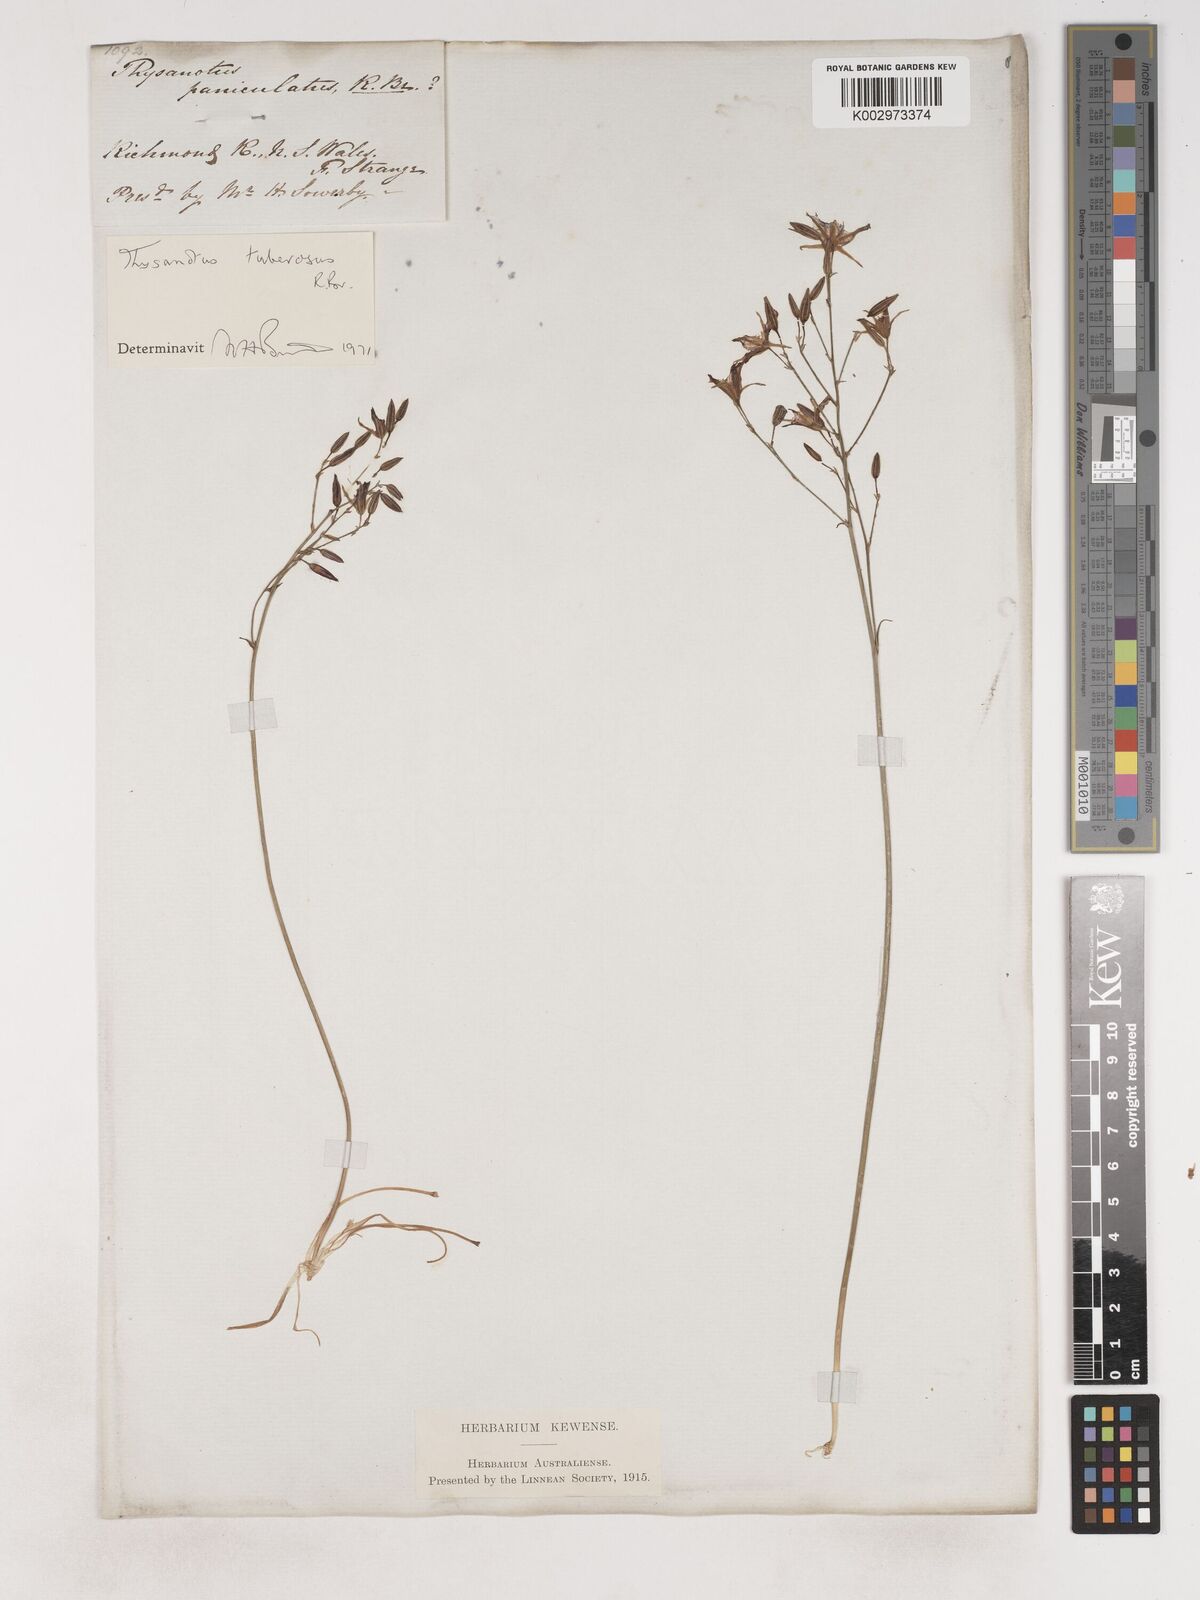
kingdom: Plantae
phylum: Tracheophyta
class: Liliopsida
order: Asparagales
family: Asparagaceae
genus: Thysanotus
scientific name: Thysanotus tuberosus
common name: Common fringed-lily
